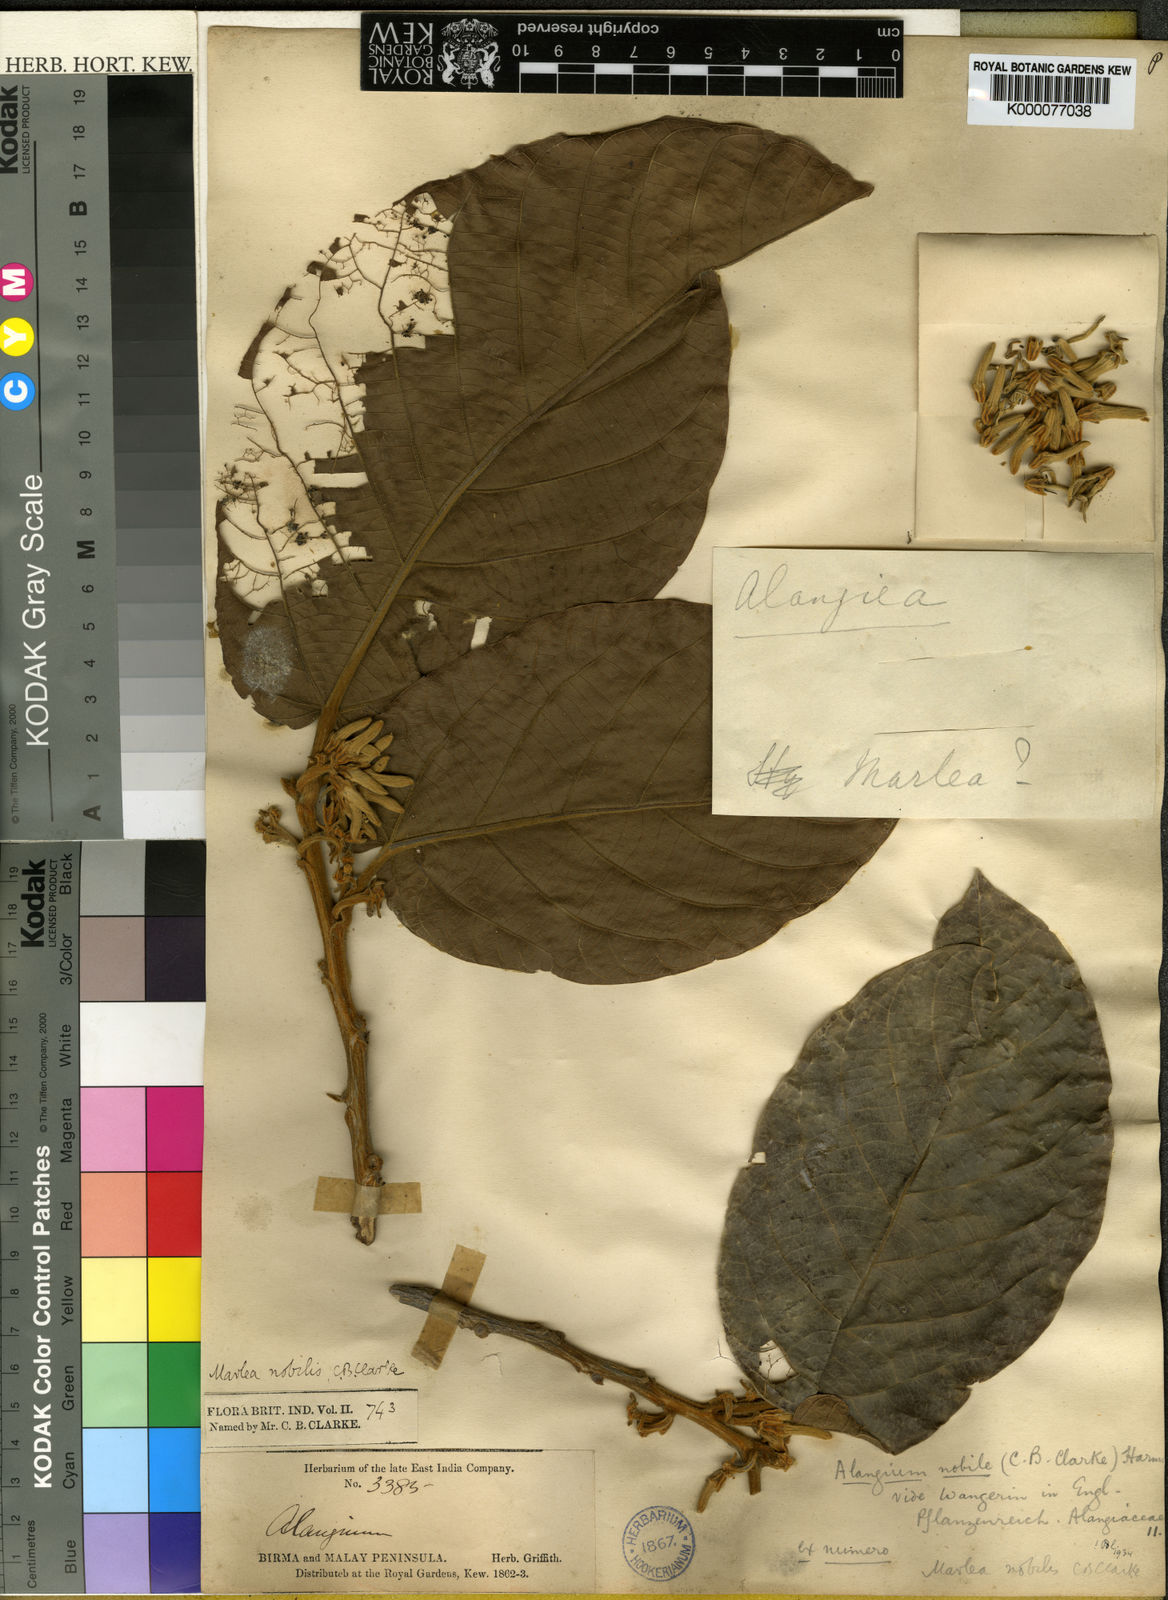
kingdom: Plantae
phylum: Tracheophyta
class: Magnoliopsida
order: Cornales
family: Cornaceae
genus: Alangium
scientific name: Alangium nobile
